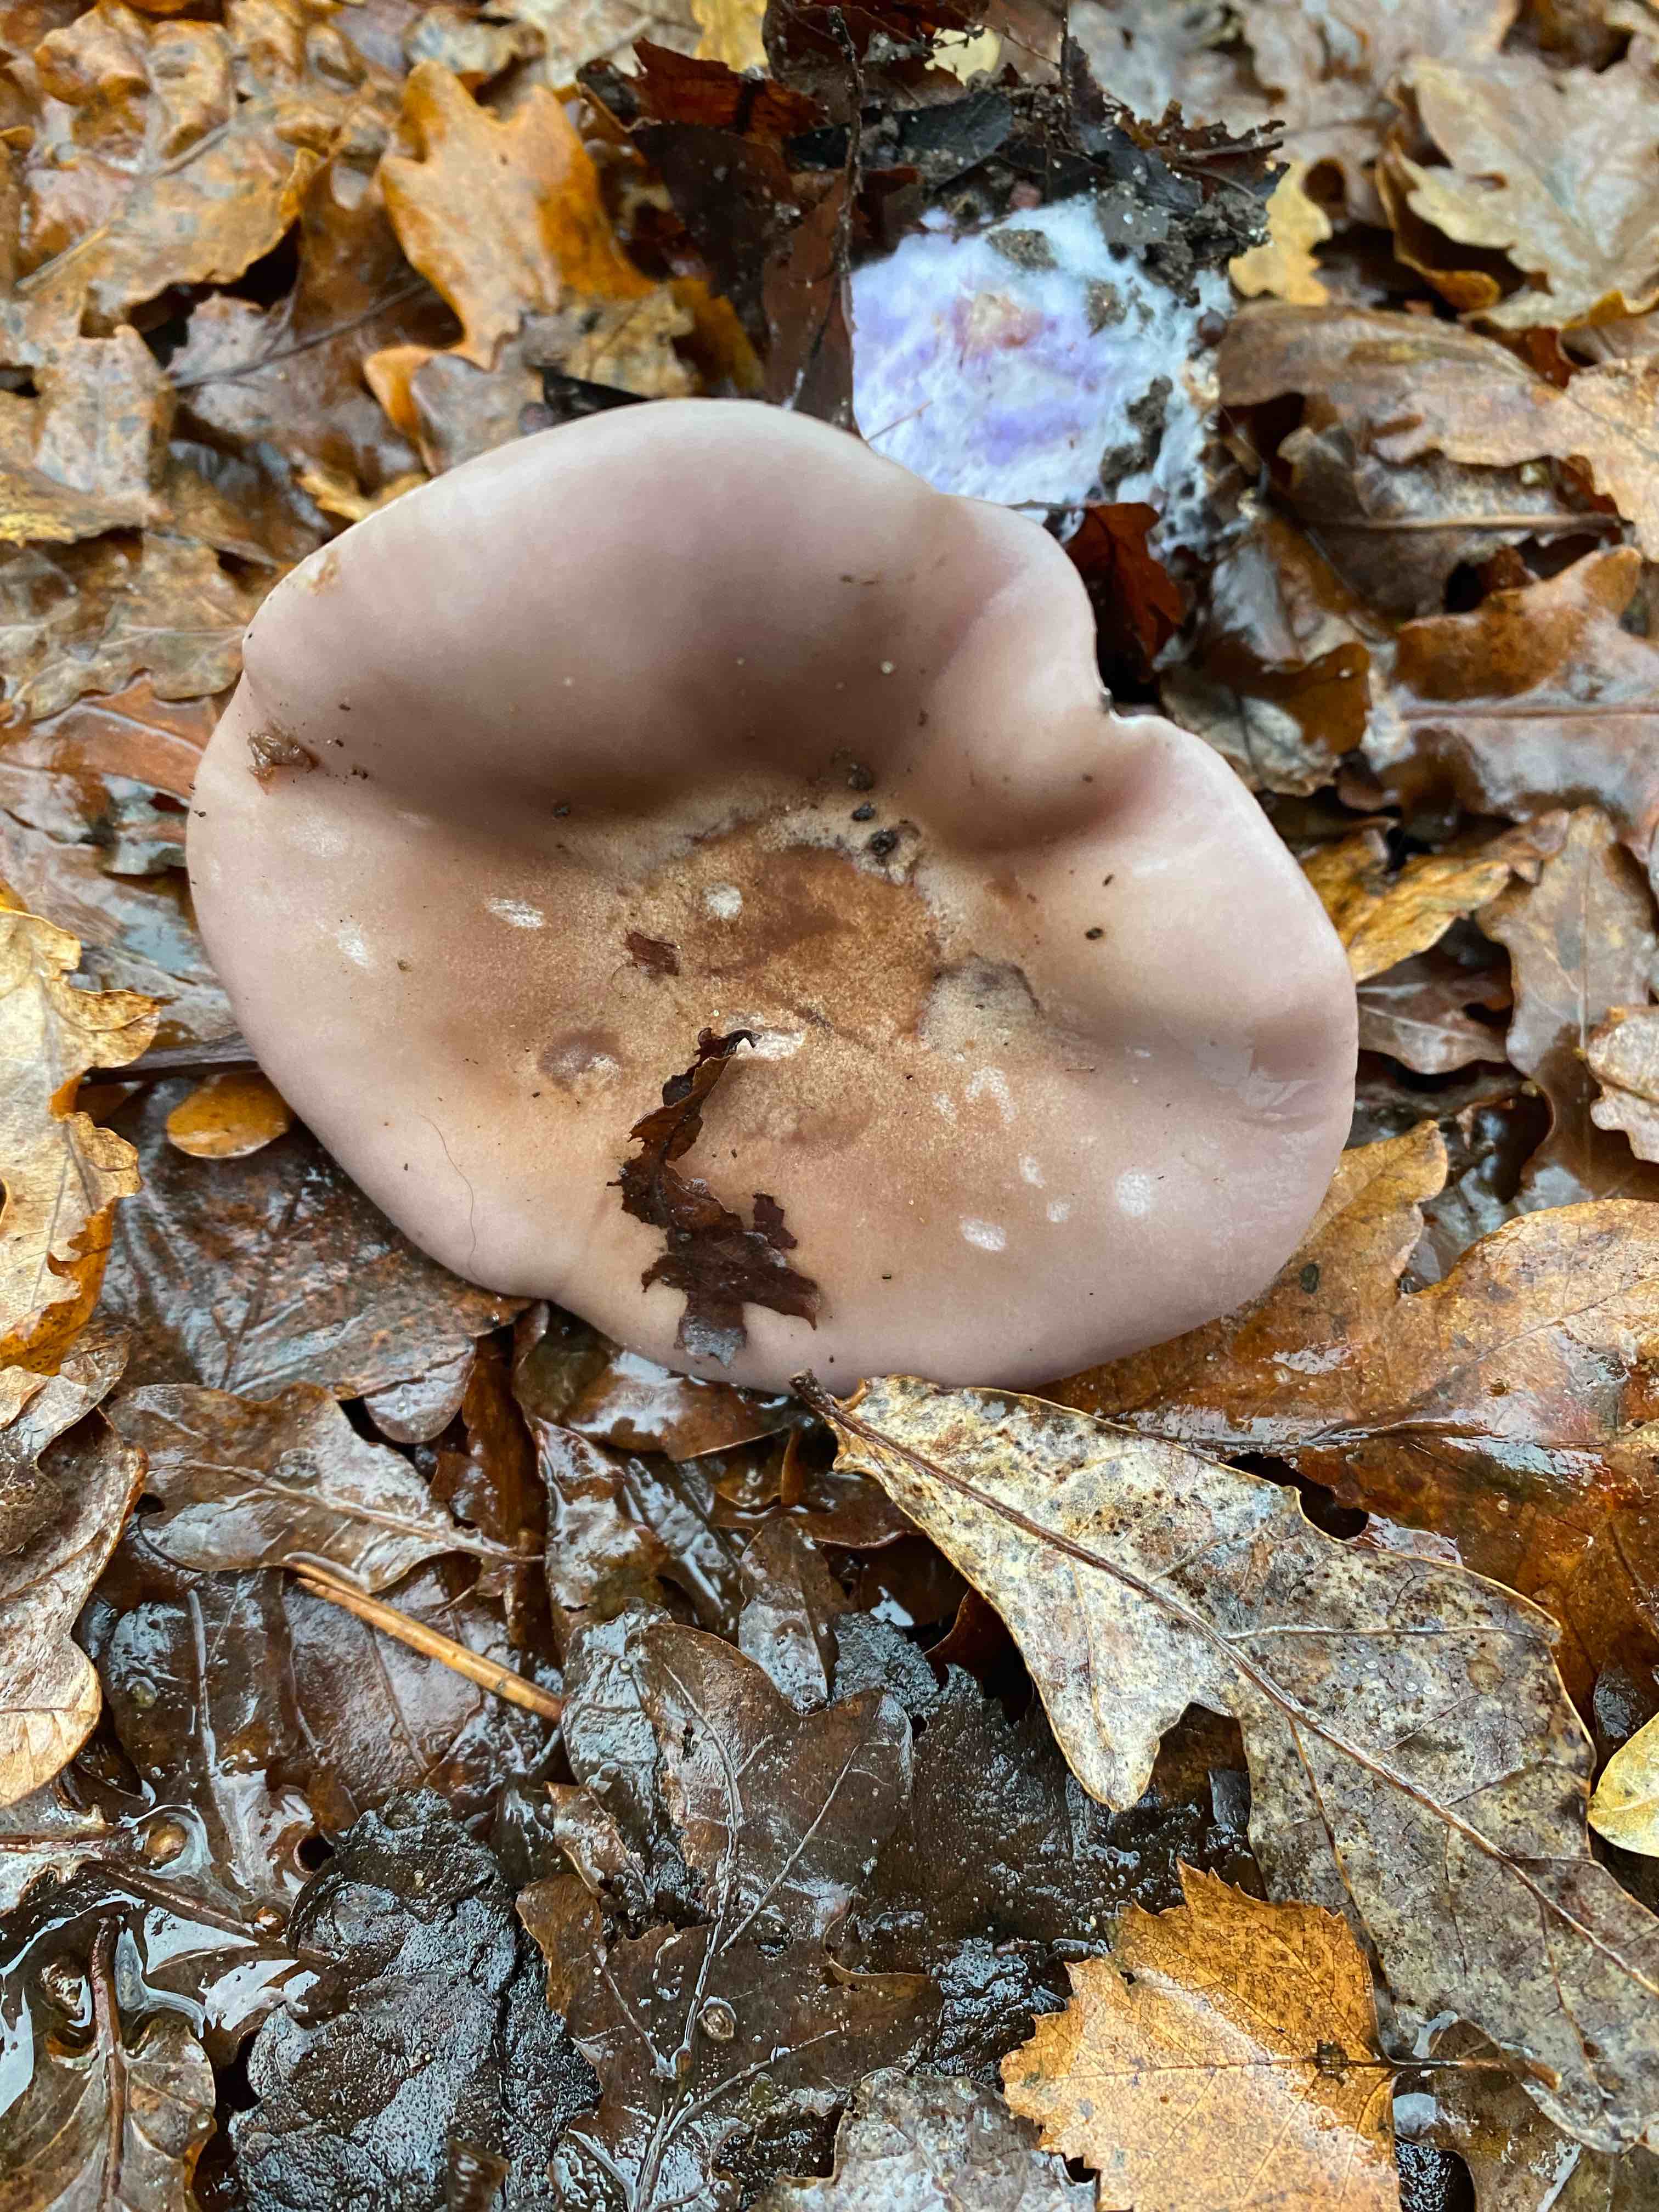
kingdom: Fungi
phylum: Basidiomycota
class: Agaricomycetes
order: Agaricales
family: Tricholomataceae
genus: Lepista
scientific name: Lepista nuda
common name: violet hekseringshat
